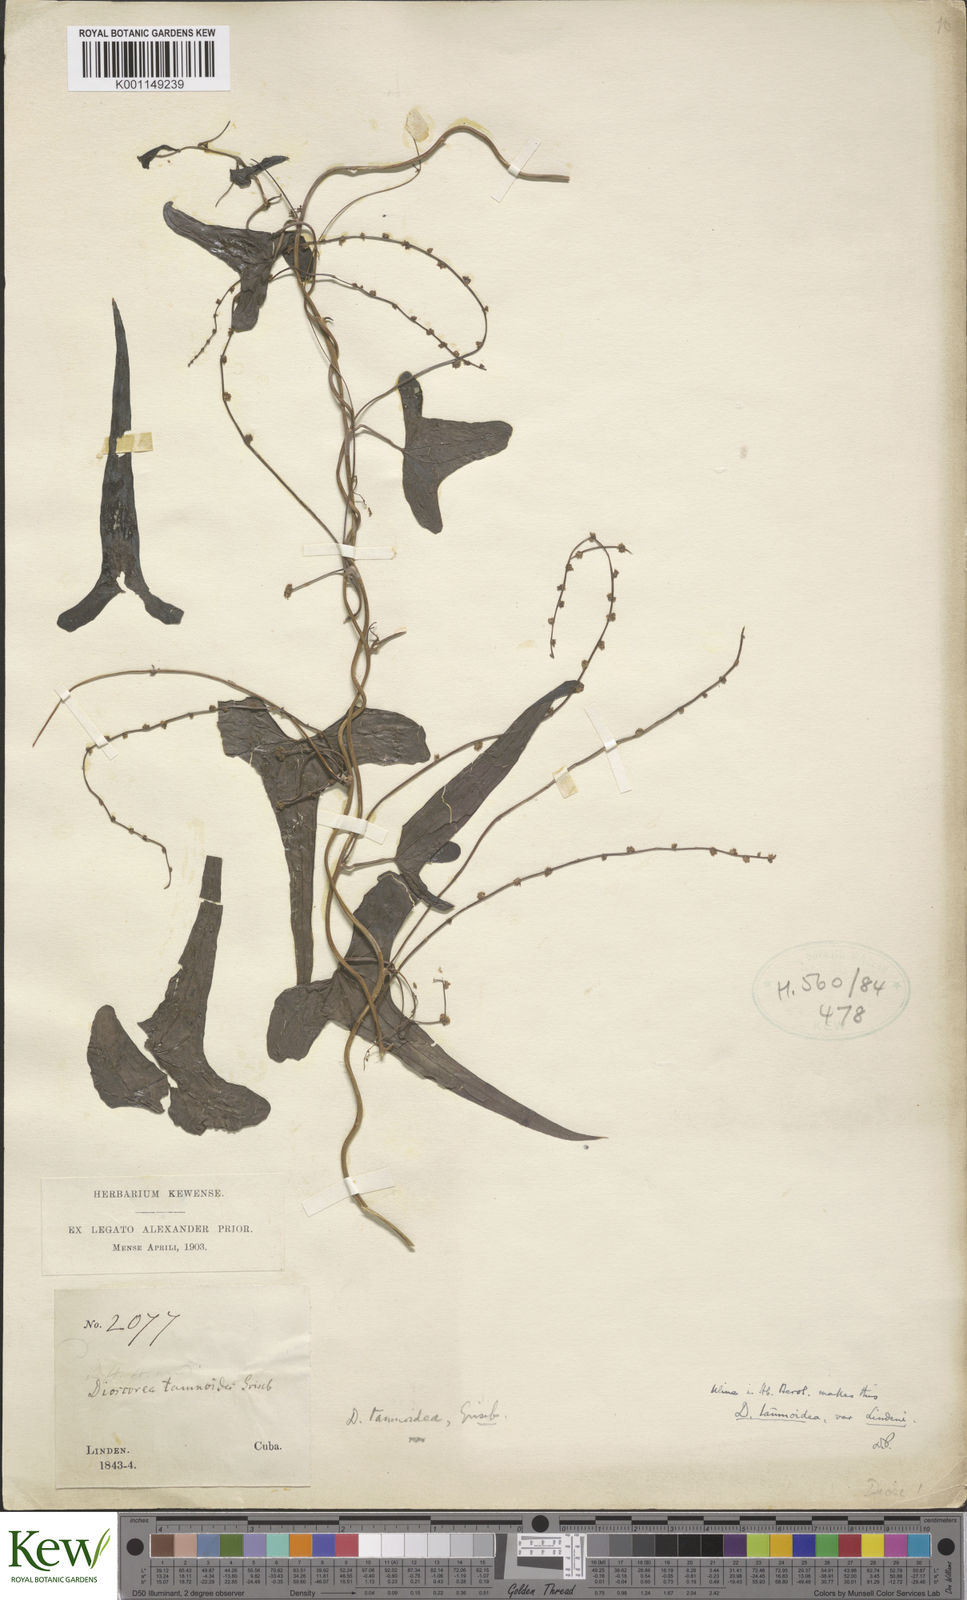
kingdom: Plantae
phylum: Tracheophyta
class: Liliopsida
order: Dioscoreales
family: Dioscoreaceae
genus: Dioscorea
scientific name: Dioscorea tamoidea
